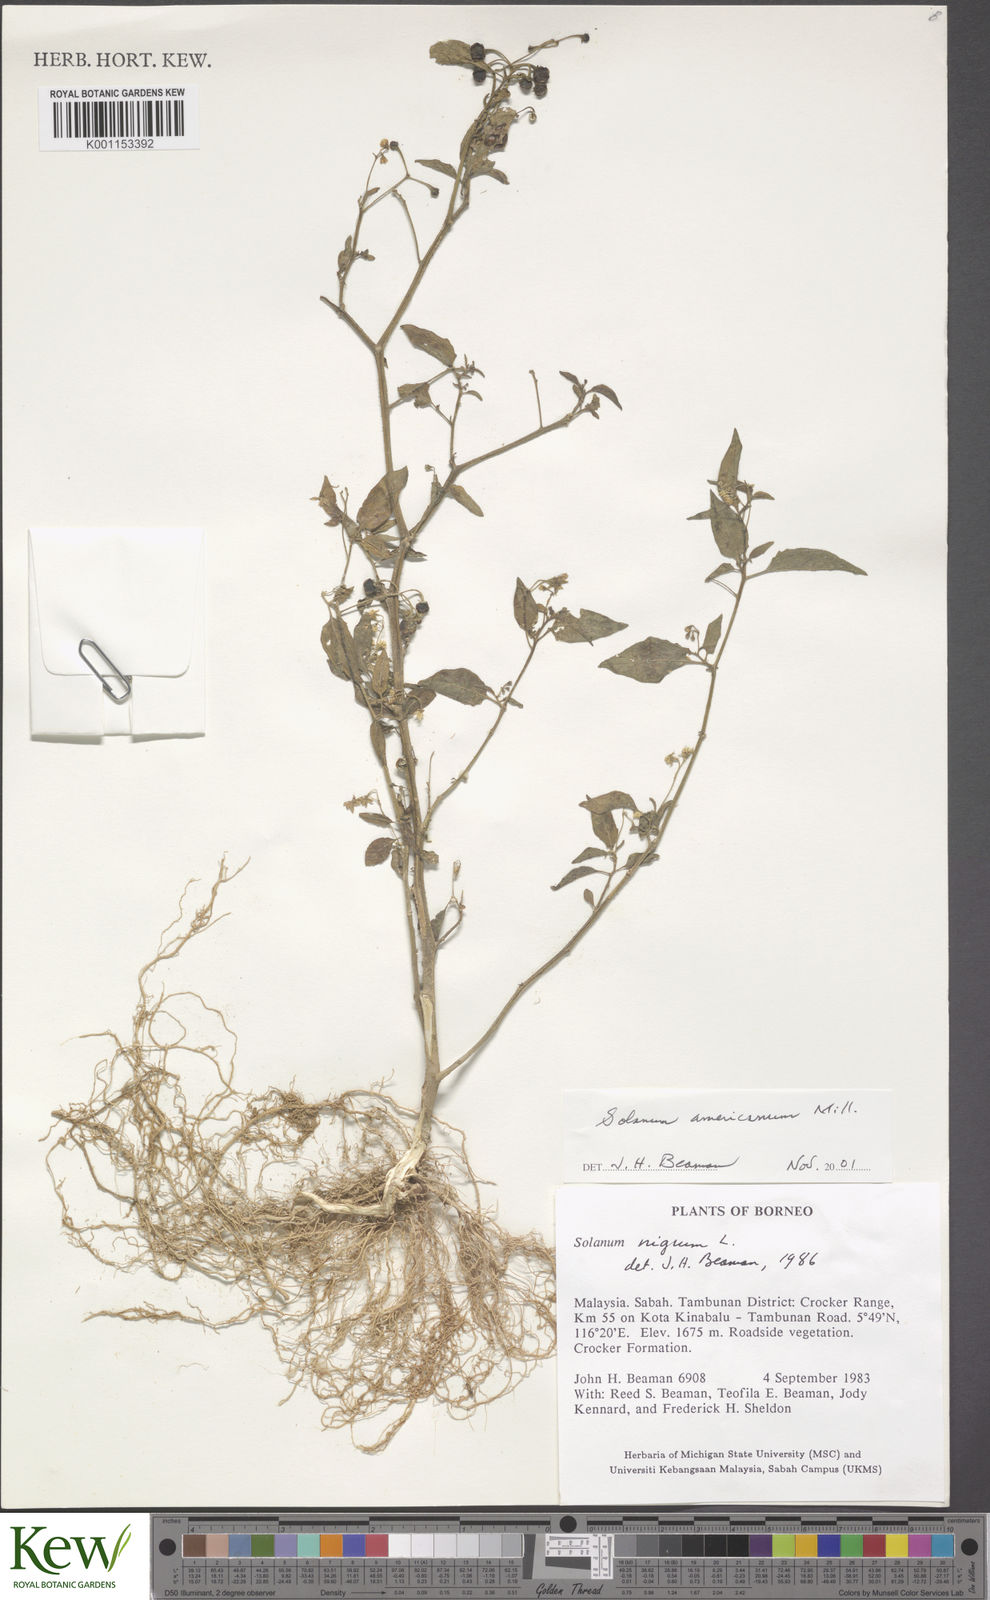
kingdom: Plantae
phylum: Tracheophyta
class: Magnoliopsida
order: Solanales
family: Solanaceae
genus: Solanum
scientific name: Solanum americanum
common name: American black nightshade
